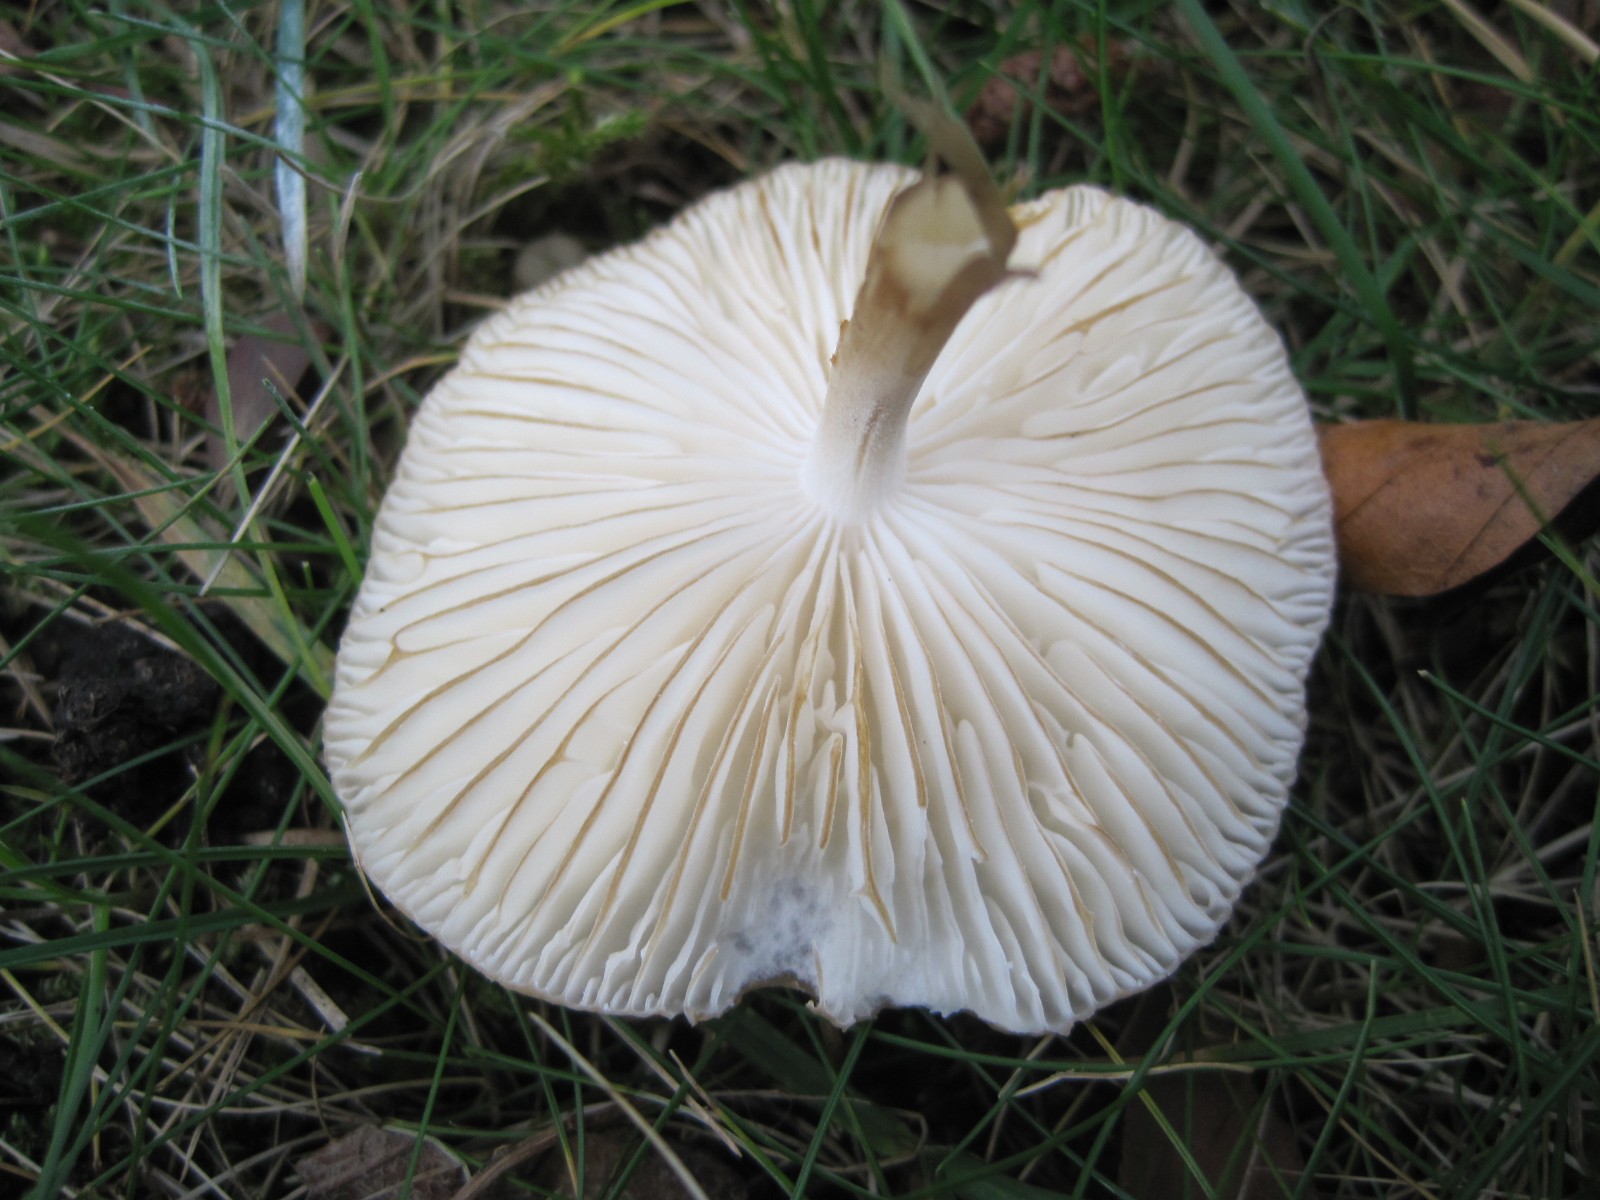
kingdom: Fungi
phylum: Basidiomycota
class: Agaricomycetes
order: Agaricales
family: Physalacriaceae
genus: Hymenopellis
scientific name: Hymenopellis radicata
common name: almindelig pælerodshat
